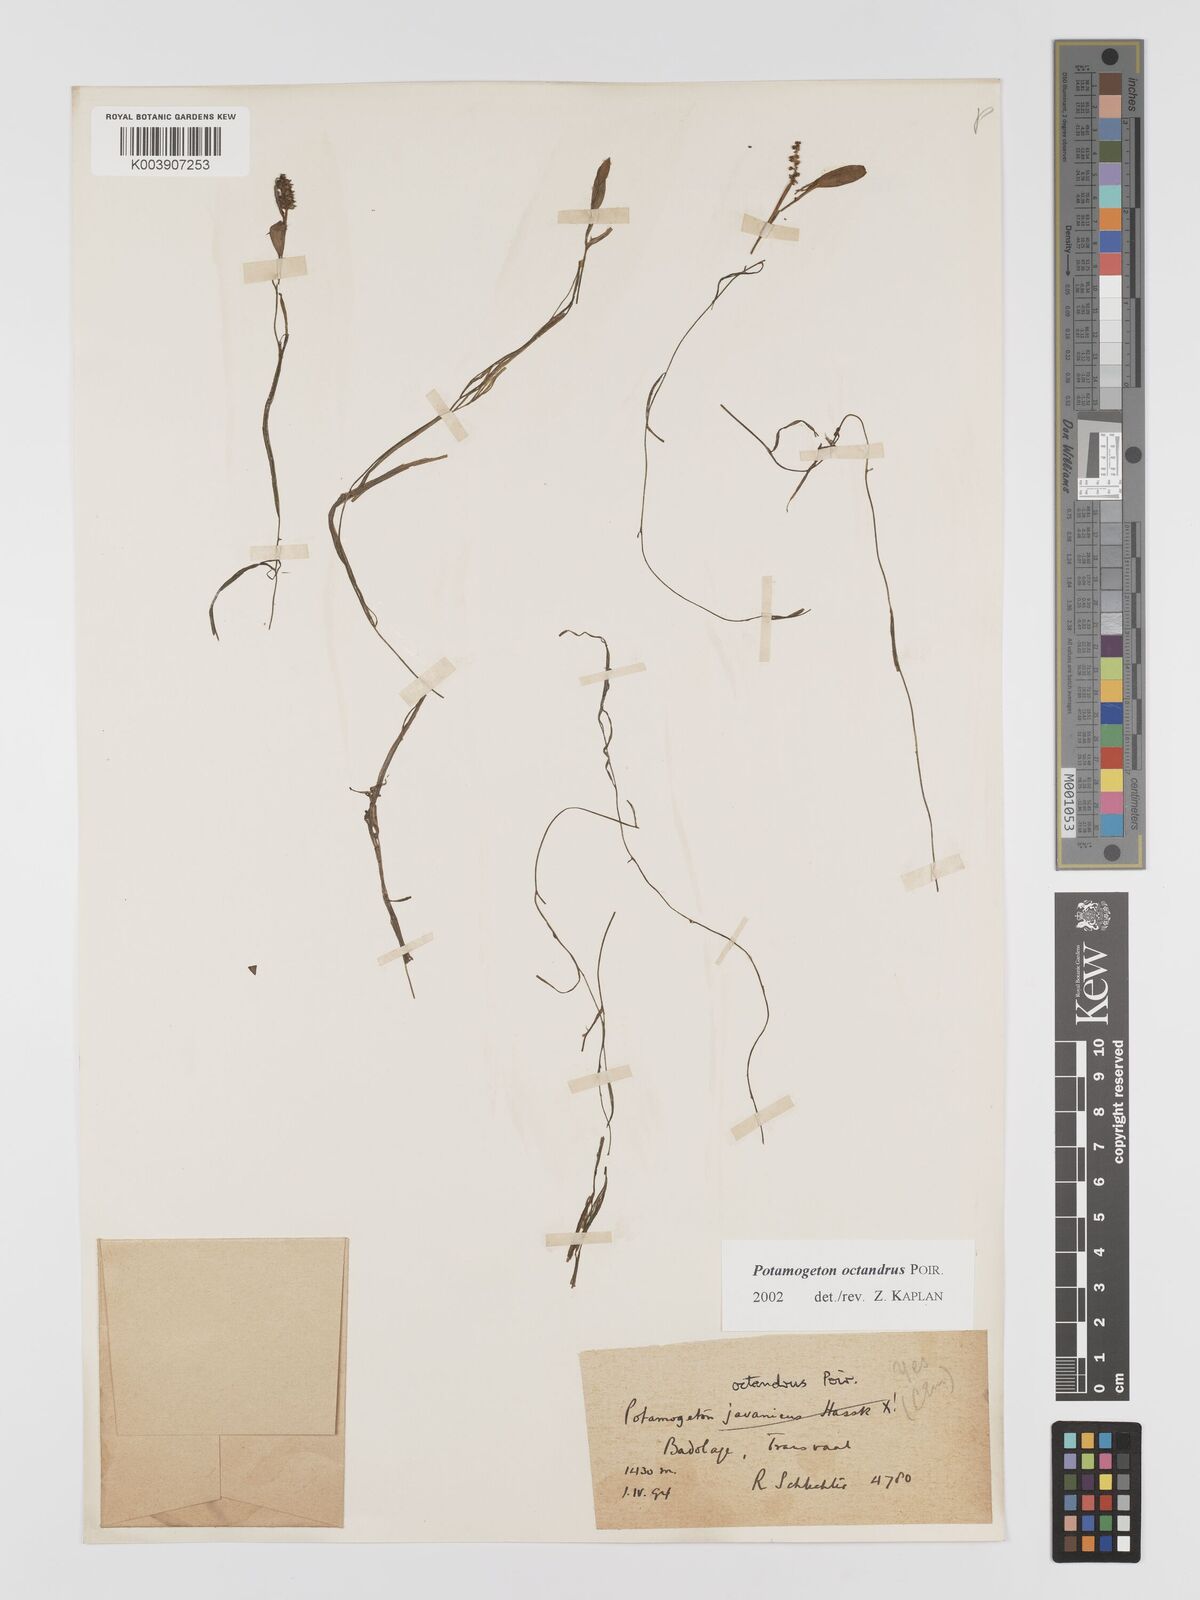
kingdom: Plantae
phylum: Tracheophyta
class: Liliopsida
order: Alismatales
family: Potamogetonaceae
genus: Potamogeton
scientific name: Potamogeton octandrus
